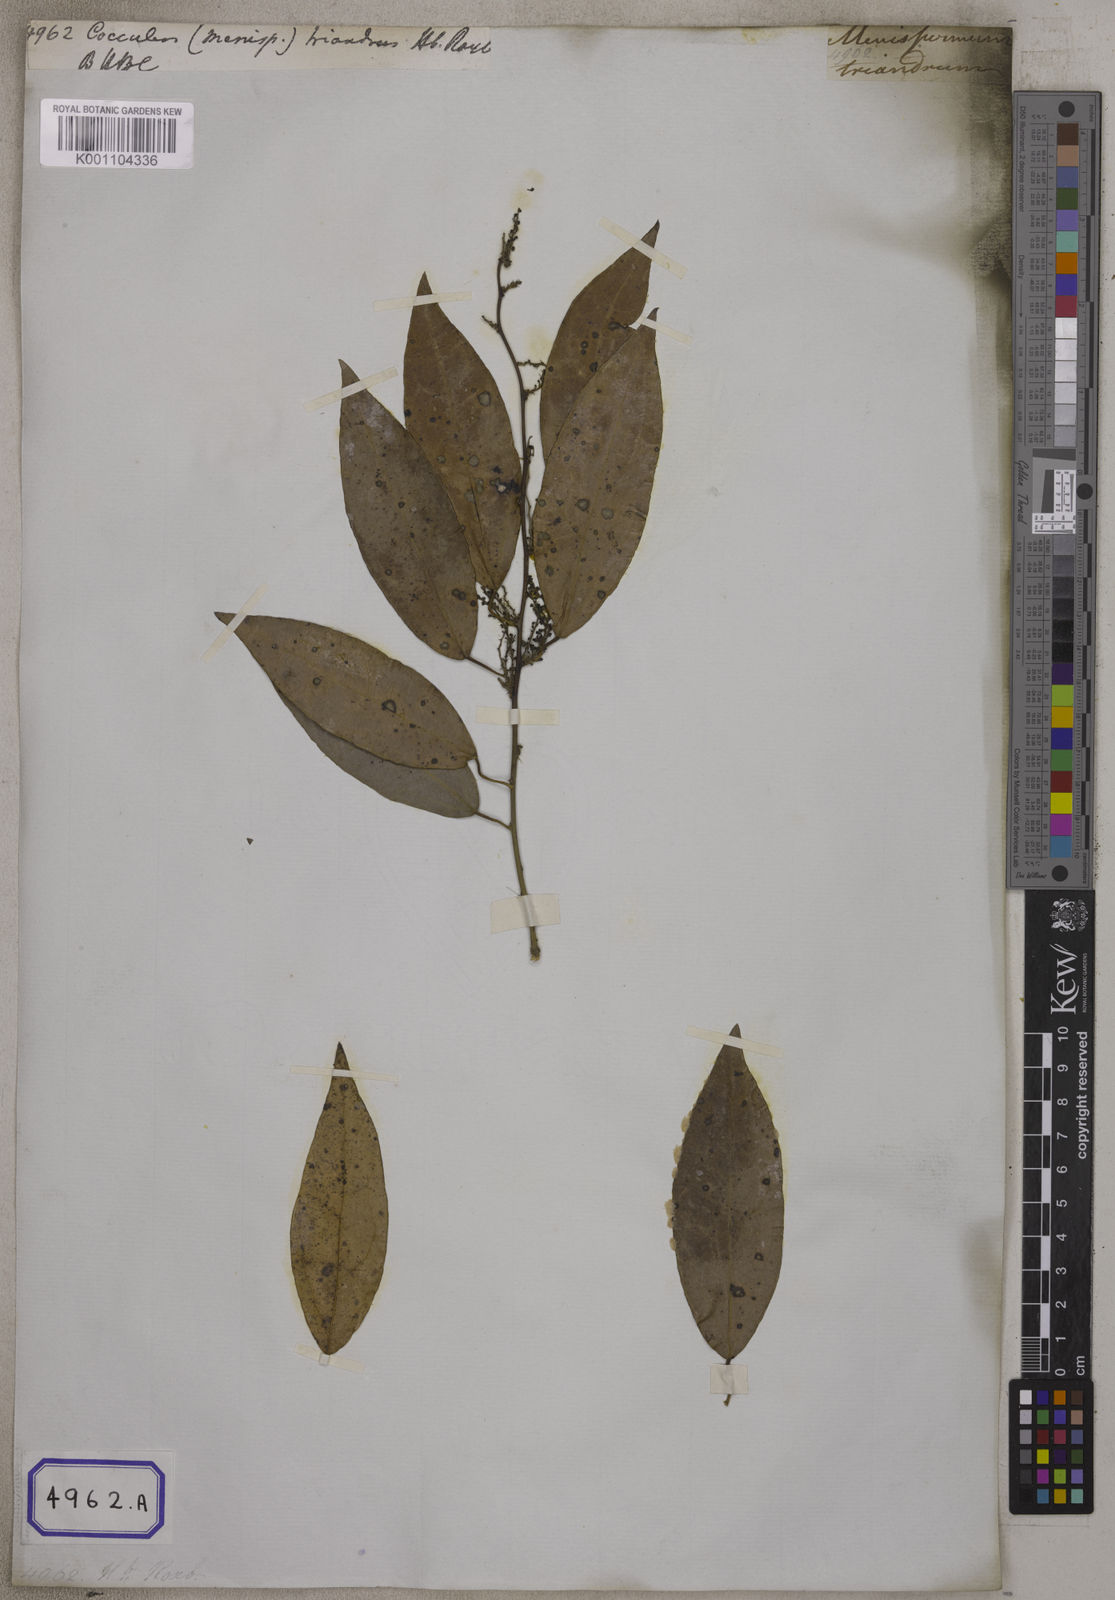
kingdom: Plantae
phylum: Tracheophyta
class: Magnoliopsida
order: Ranunculales
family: Menispermaceae
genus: Tiliacora
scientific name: Tiliacora triandra
